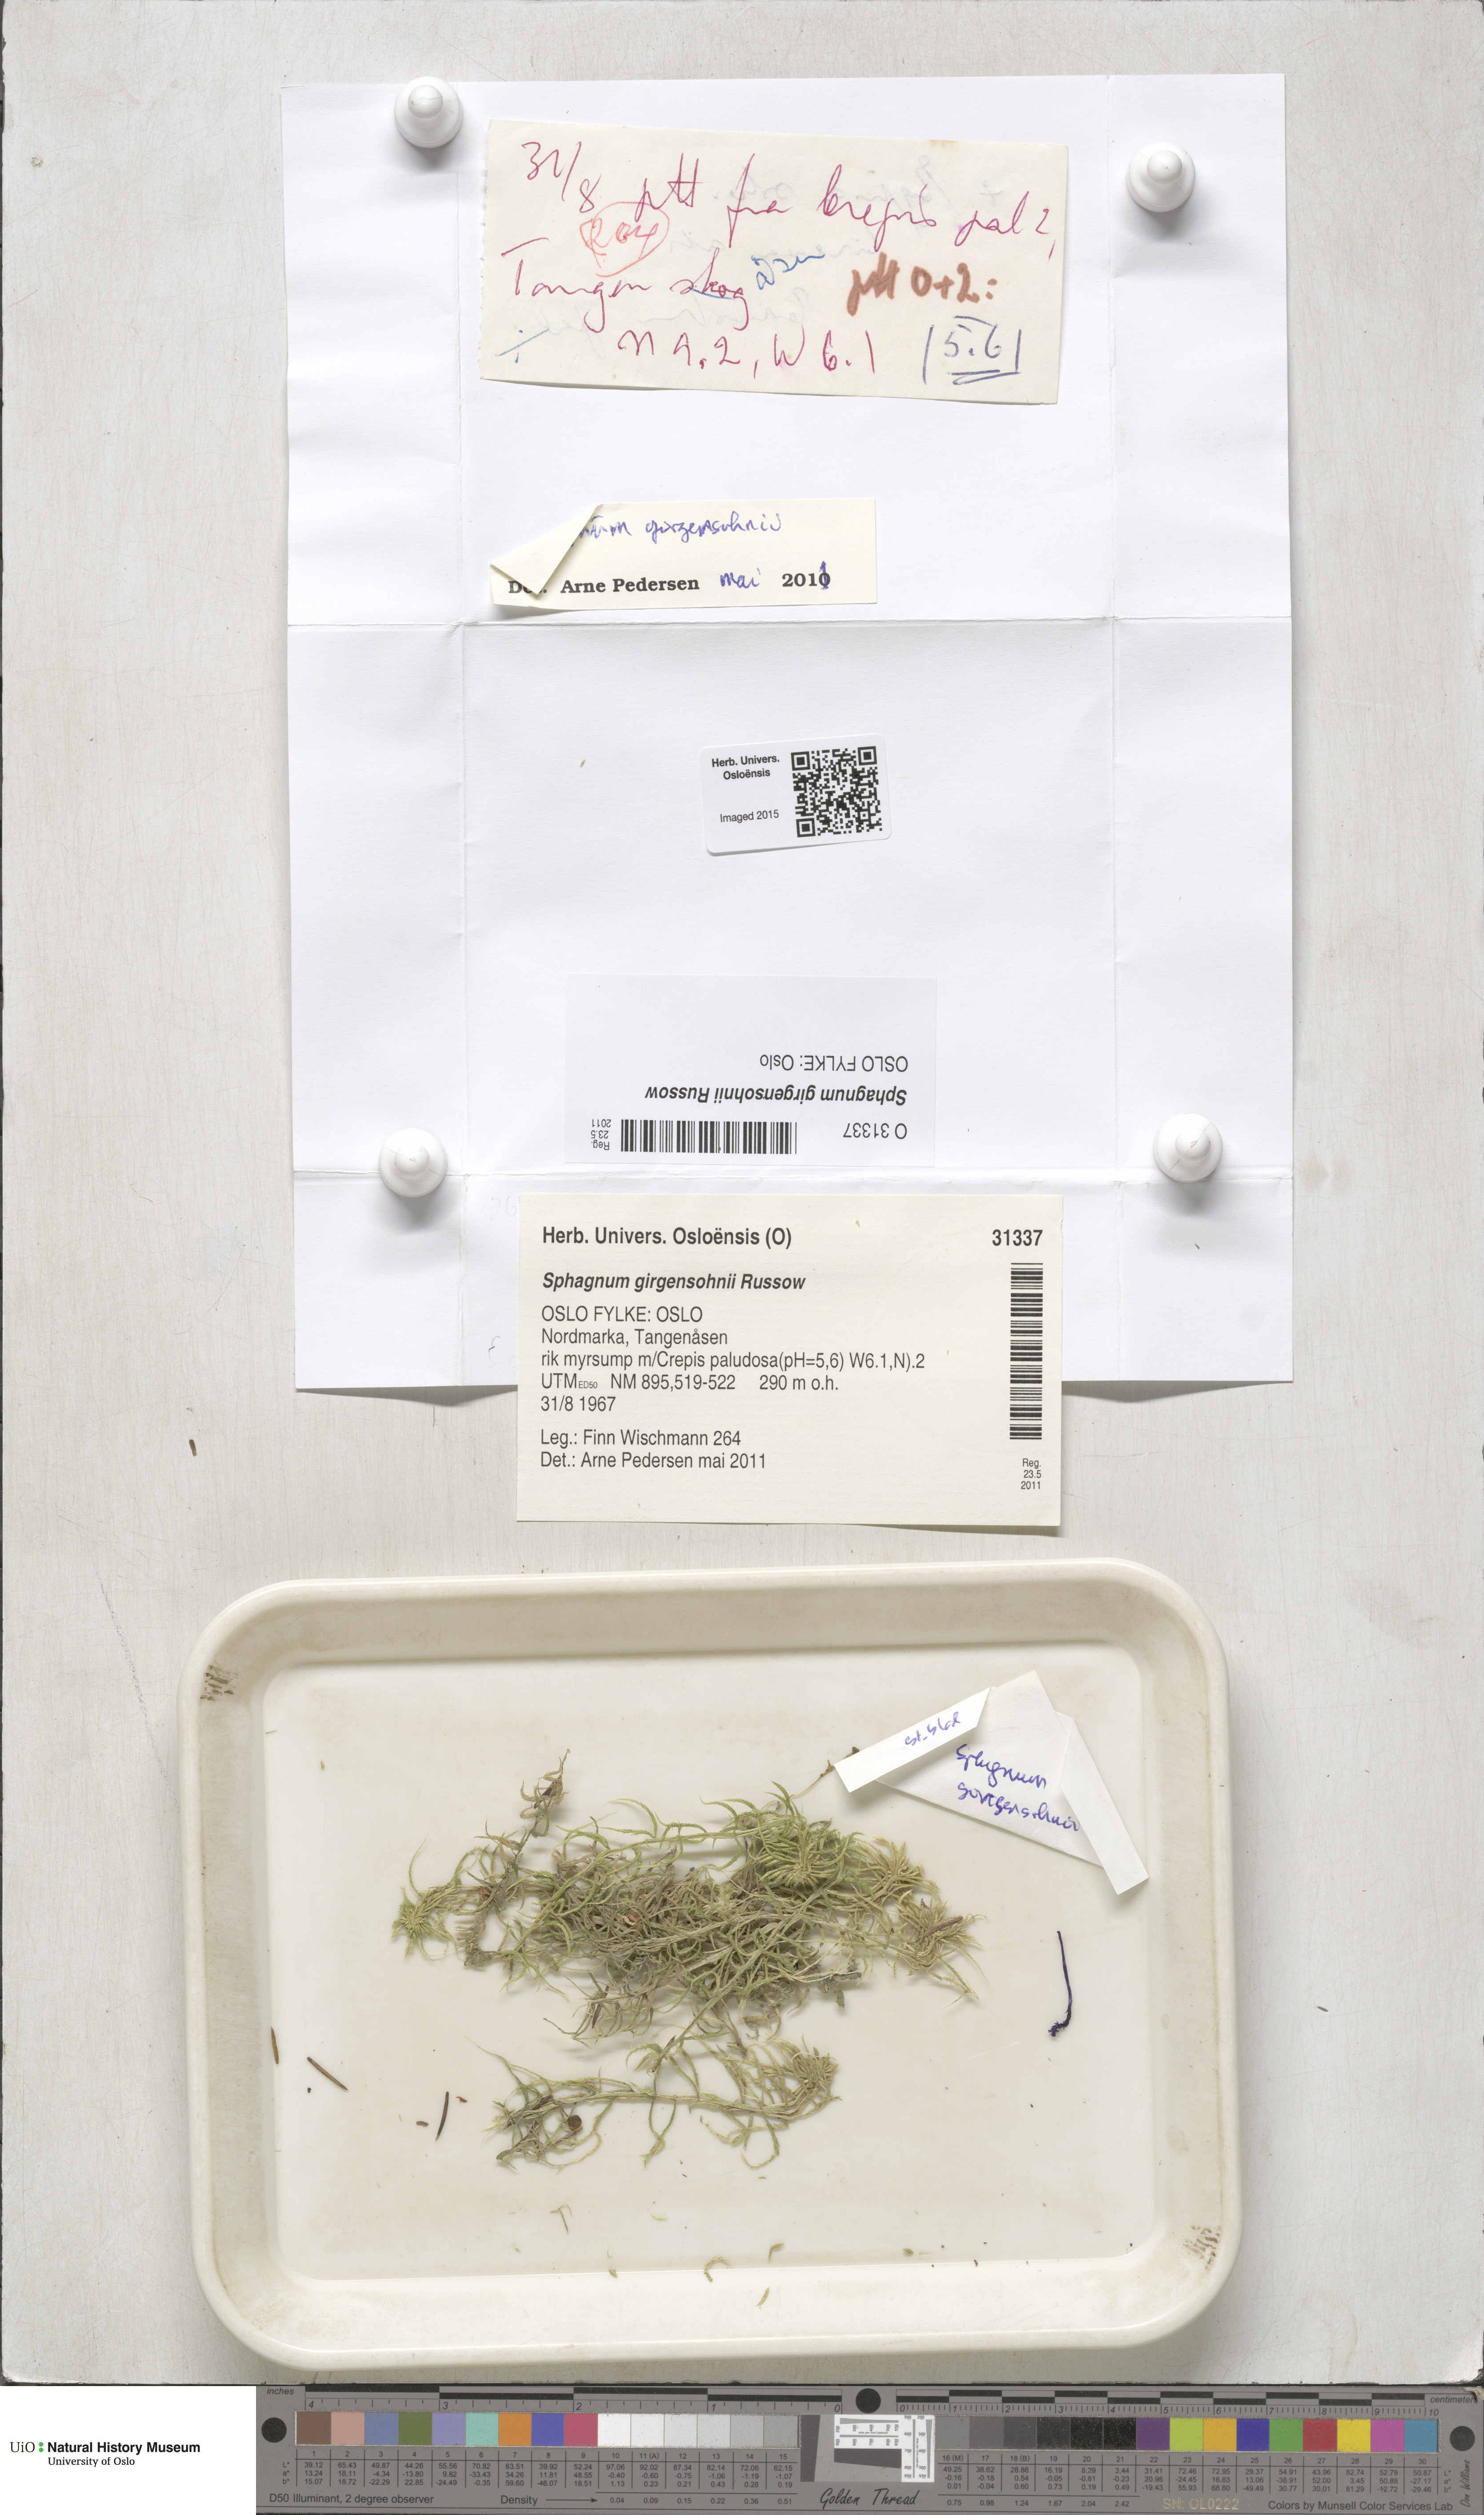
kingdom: Plantae
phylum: Bryophyta
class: Sphagnopsida
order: Sphagnales
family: Sphagnaceae
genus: Sphagnum
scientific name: Sphagnum girgensohnii
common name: Girgensohn's peat moss
